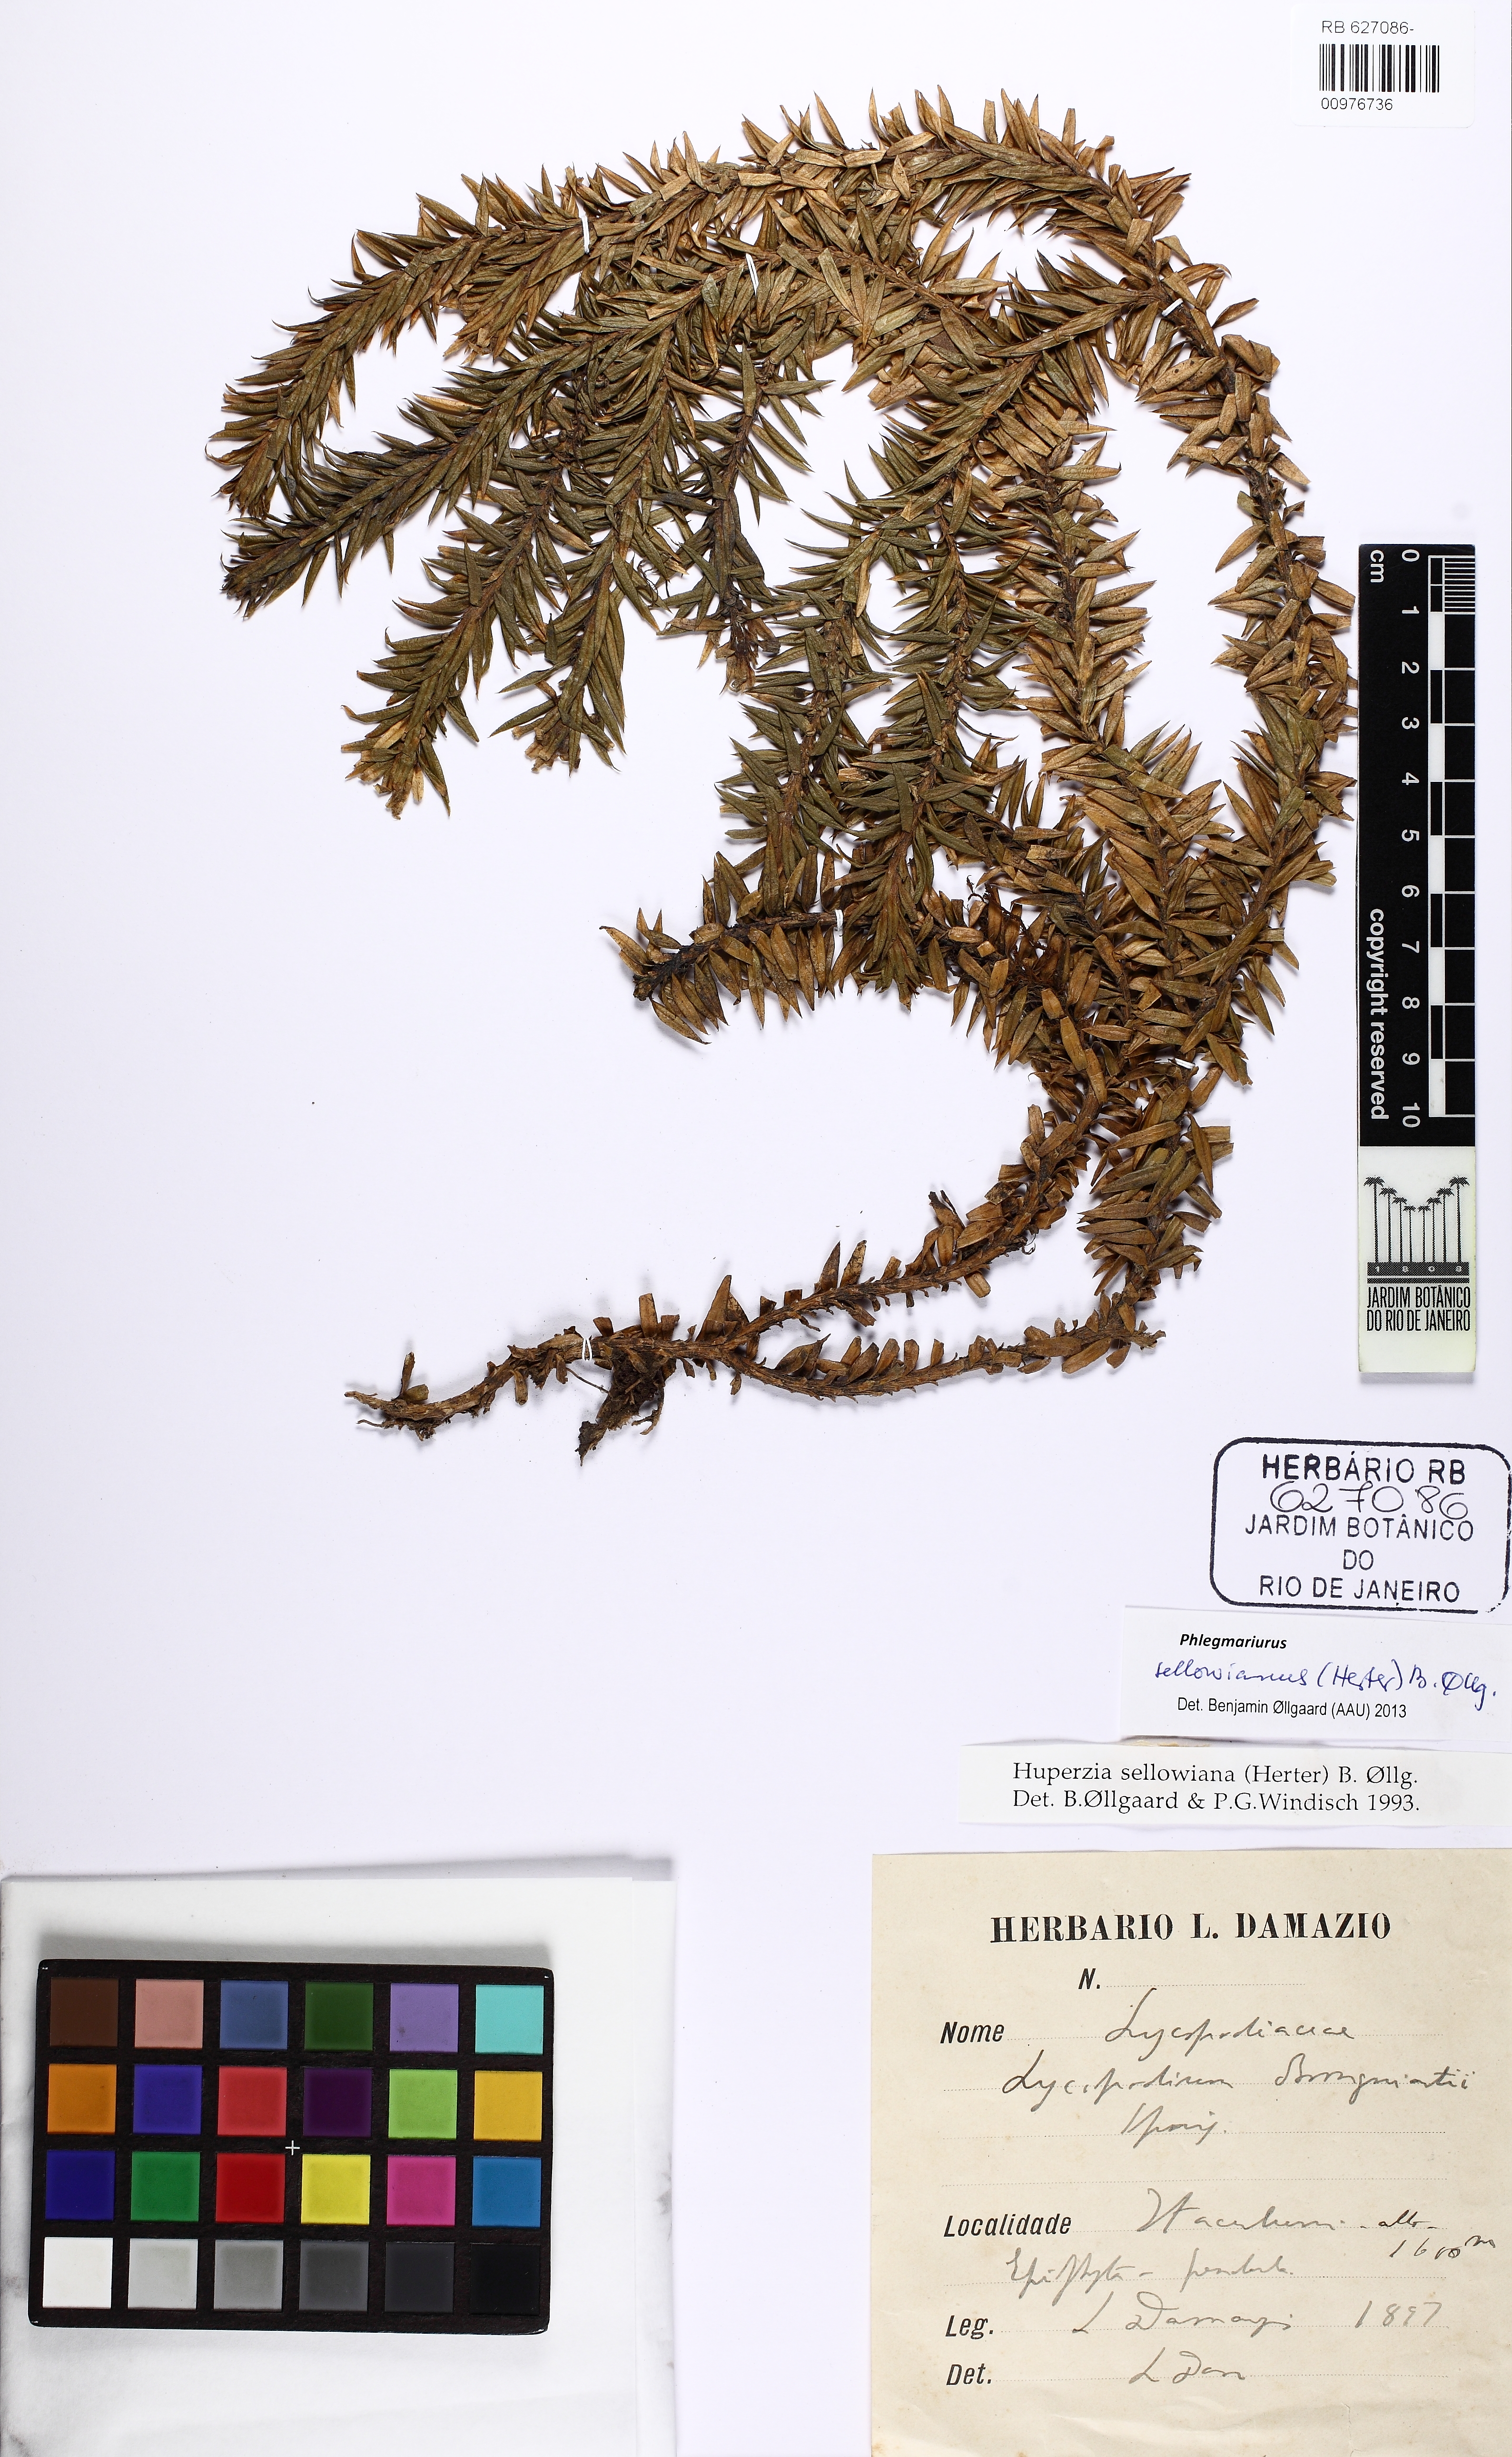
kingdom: Plantae
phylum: Tracheophyta
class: Lycopodiopsida
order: Lycopodiales
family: Lycopodiaceae
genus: Phlegmariurus
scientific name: Phlegmariurus sellowianus
